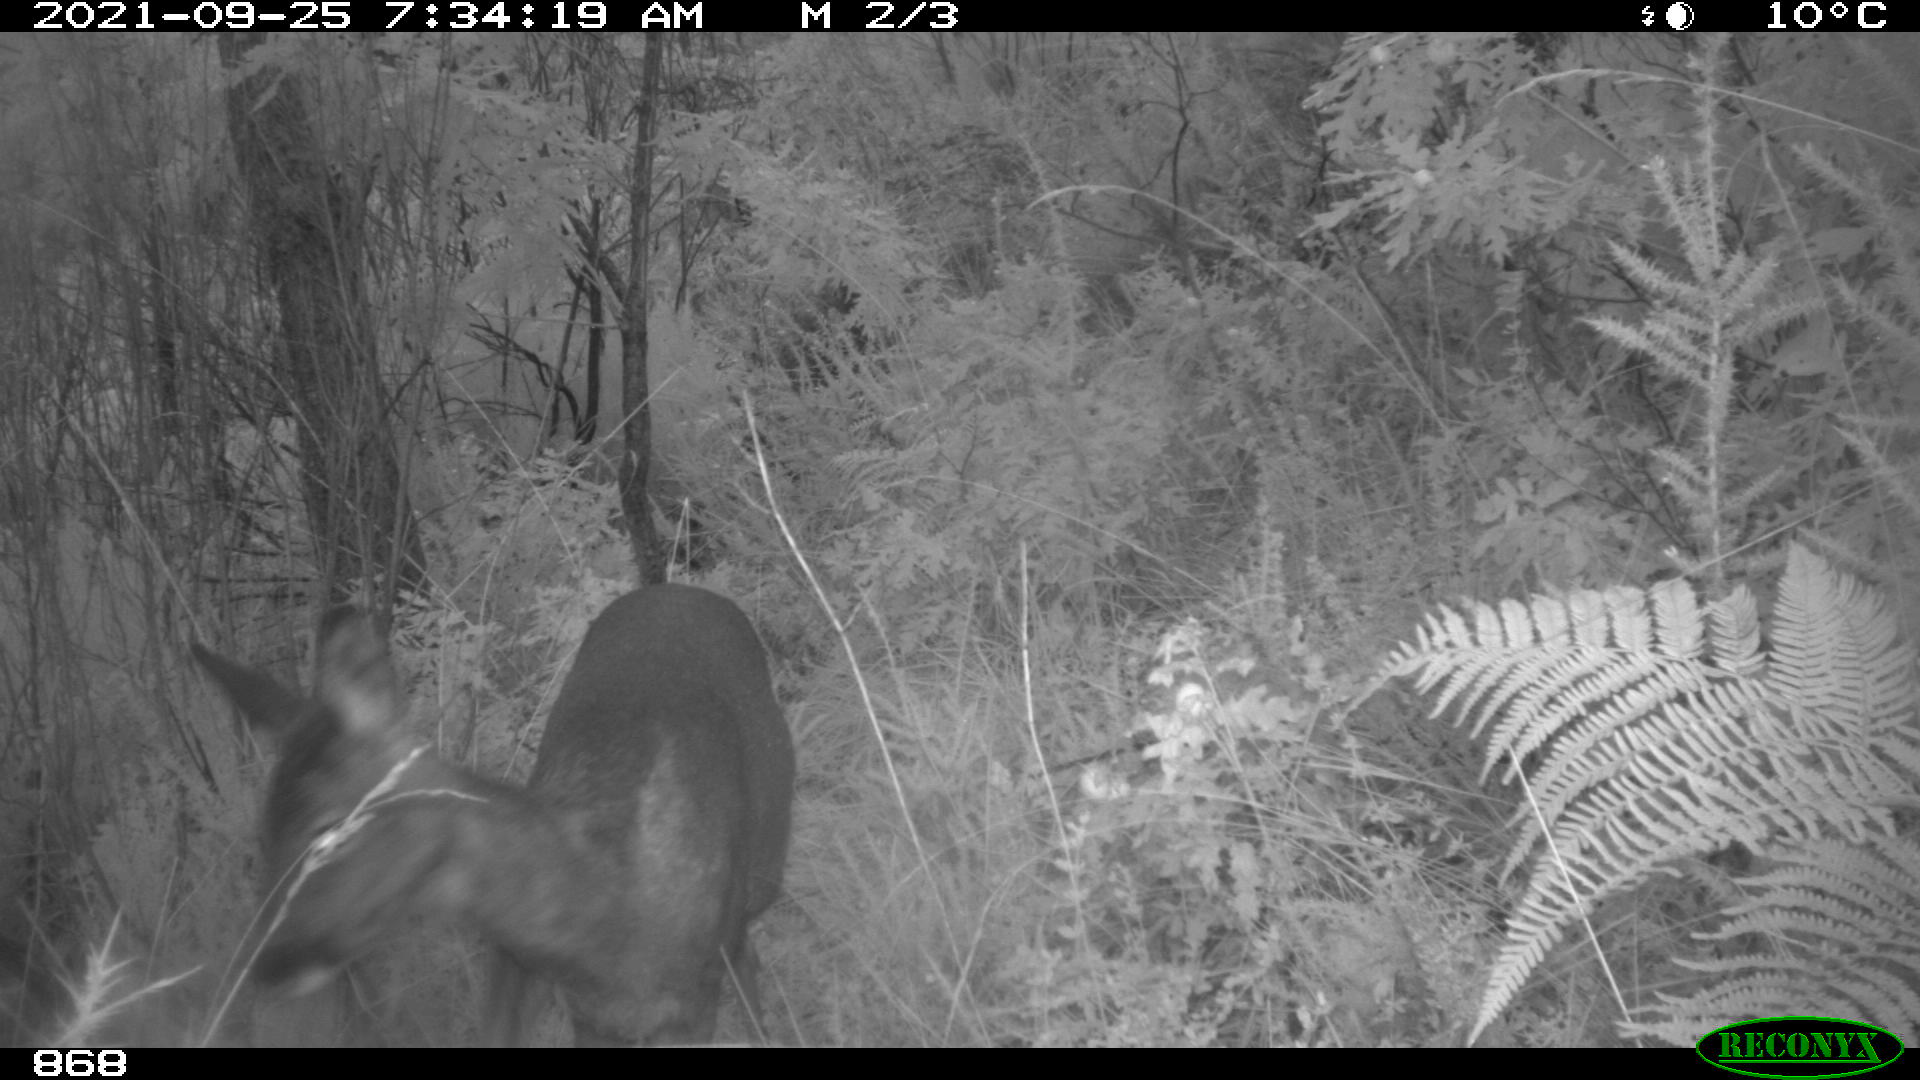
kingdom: Animalia
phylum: Chordata
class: Mammalia
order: Artiodactyla
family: Cervidae
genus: Capreolus
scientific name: Capreolus capreolus
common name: Western roe deer
